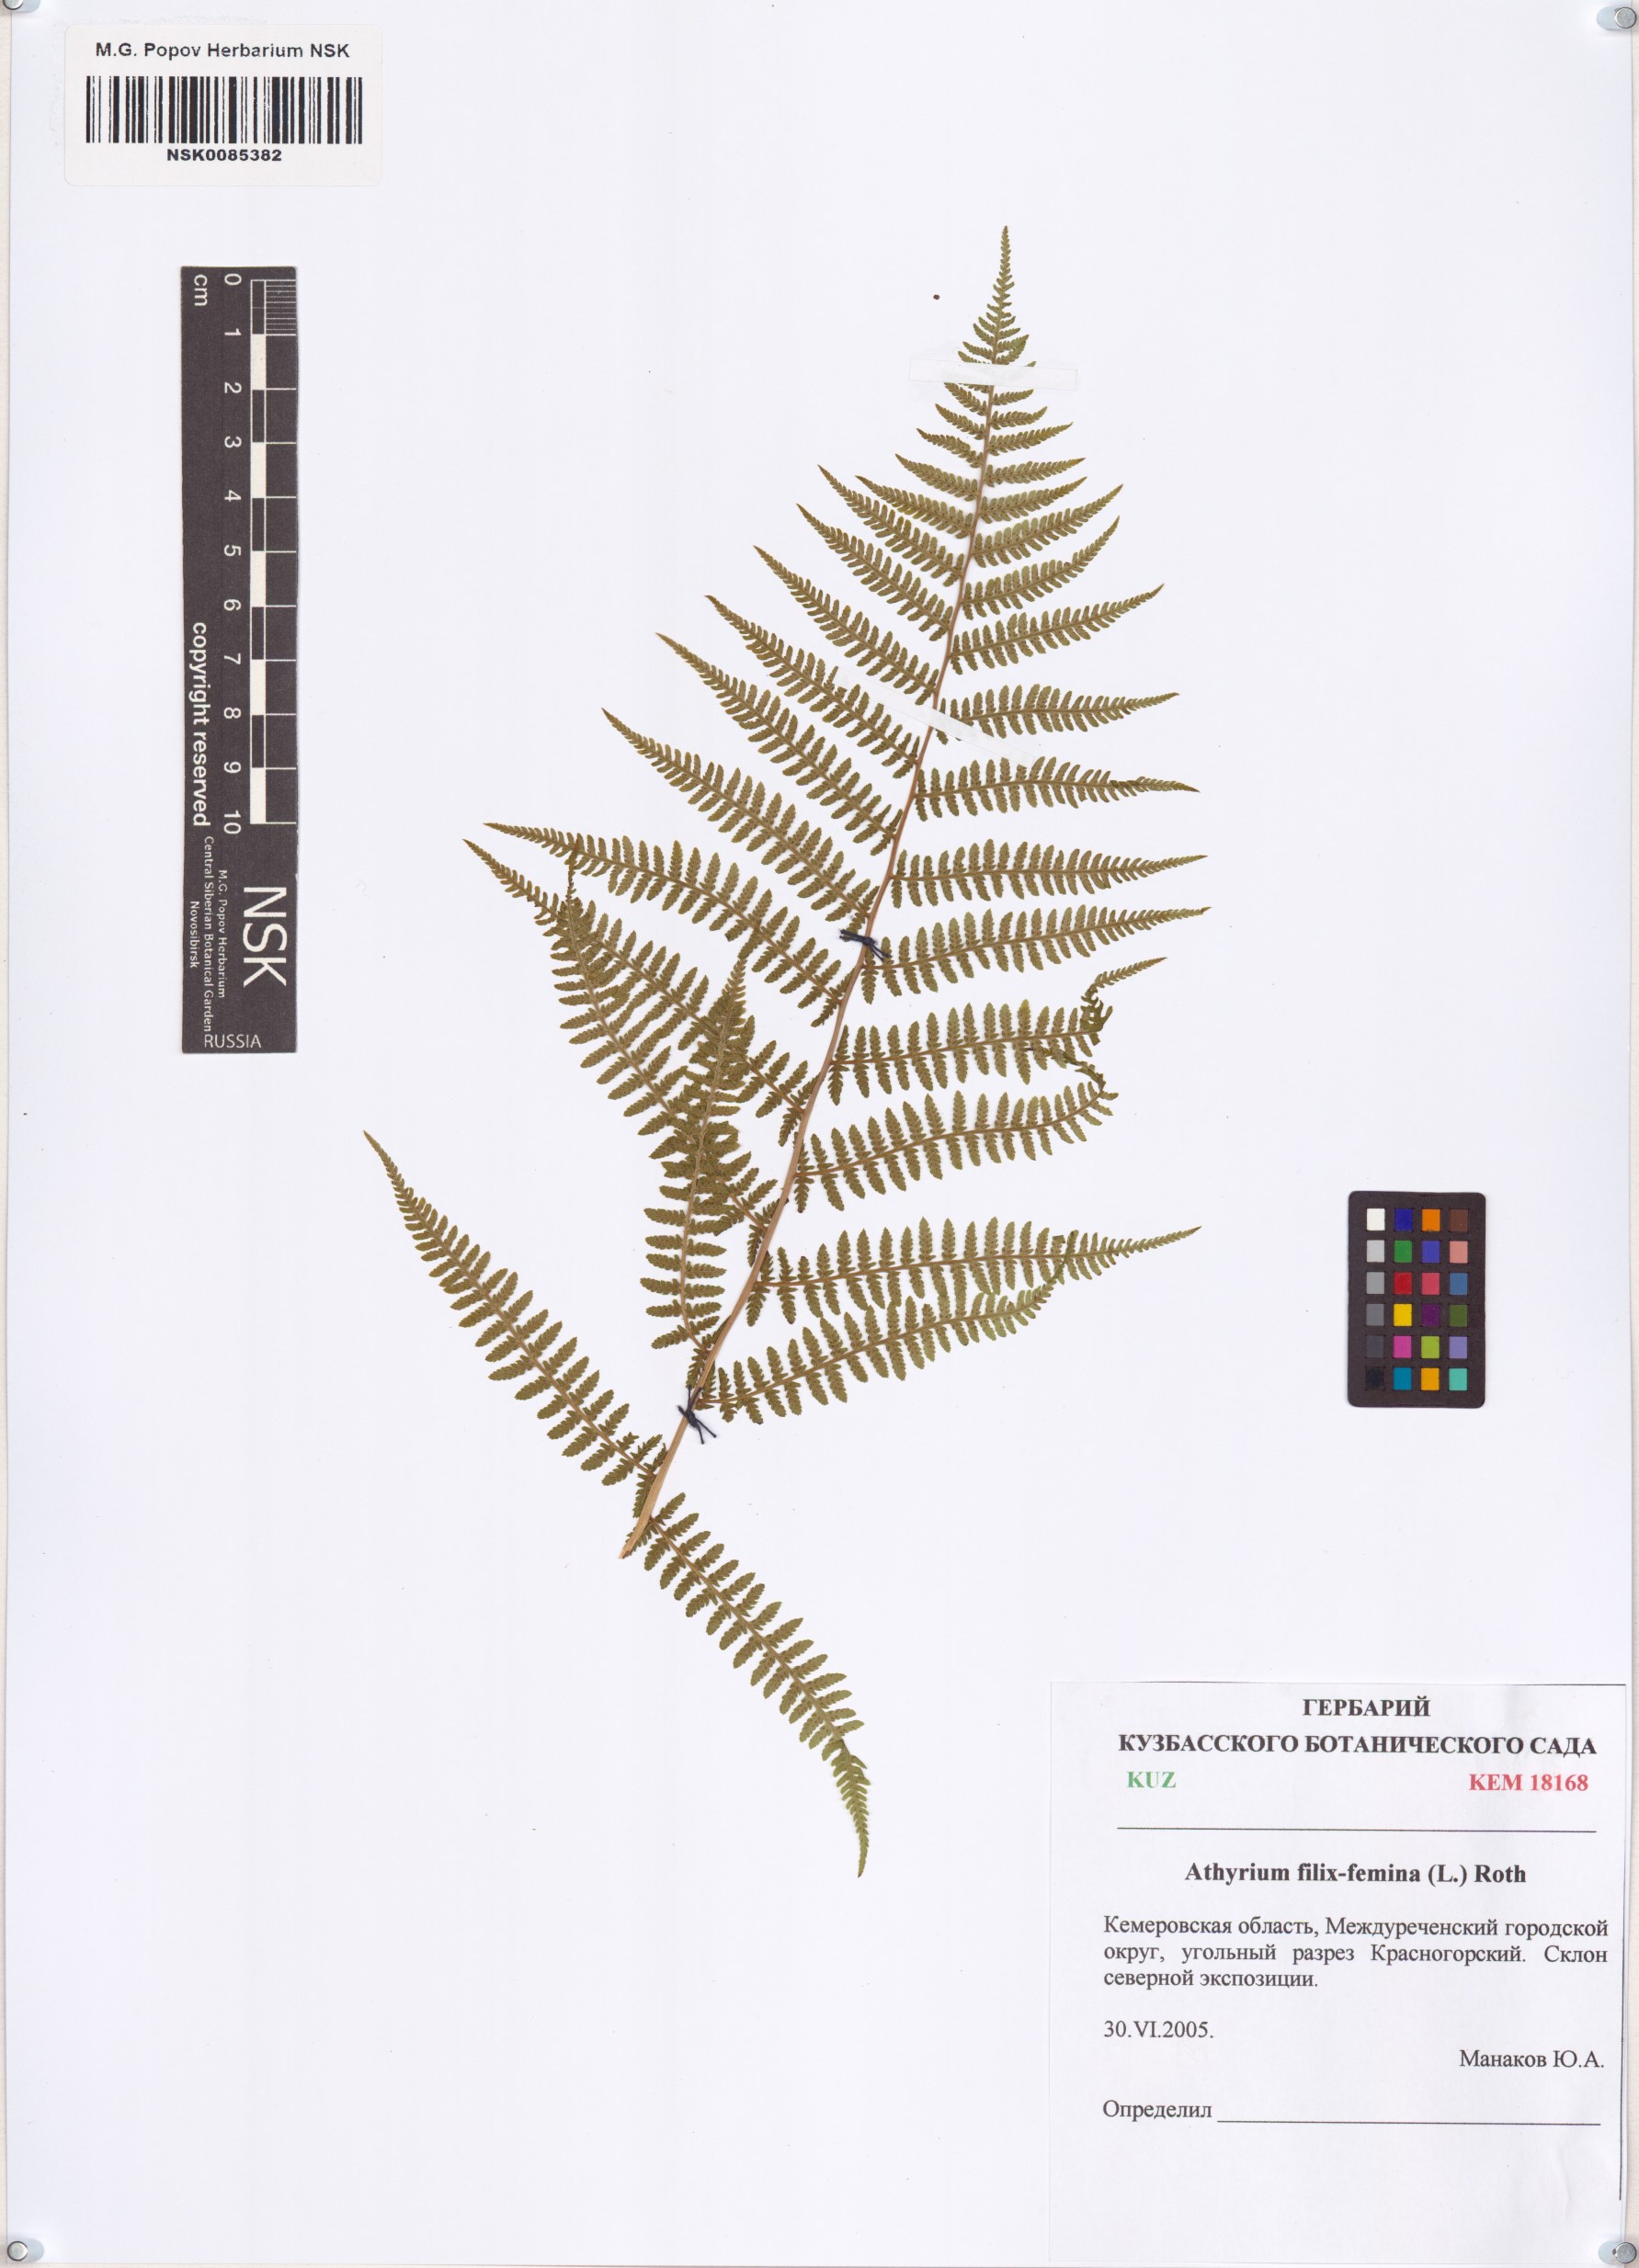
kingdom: Plantae
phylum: Tracheophyta
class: Polypodiopsida
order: Polypodiales
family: Athyriaceae
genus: Athyrium
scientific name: Athyrium filix-femina
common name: Lady fern
